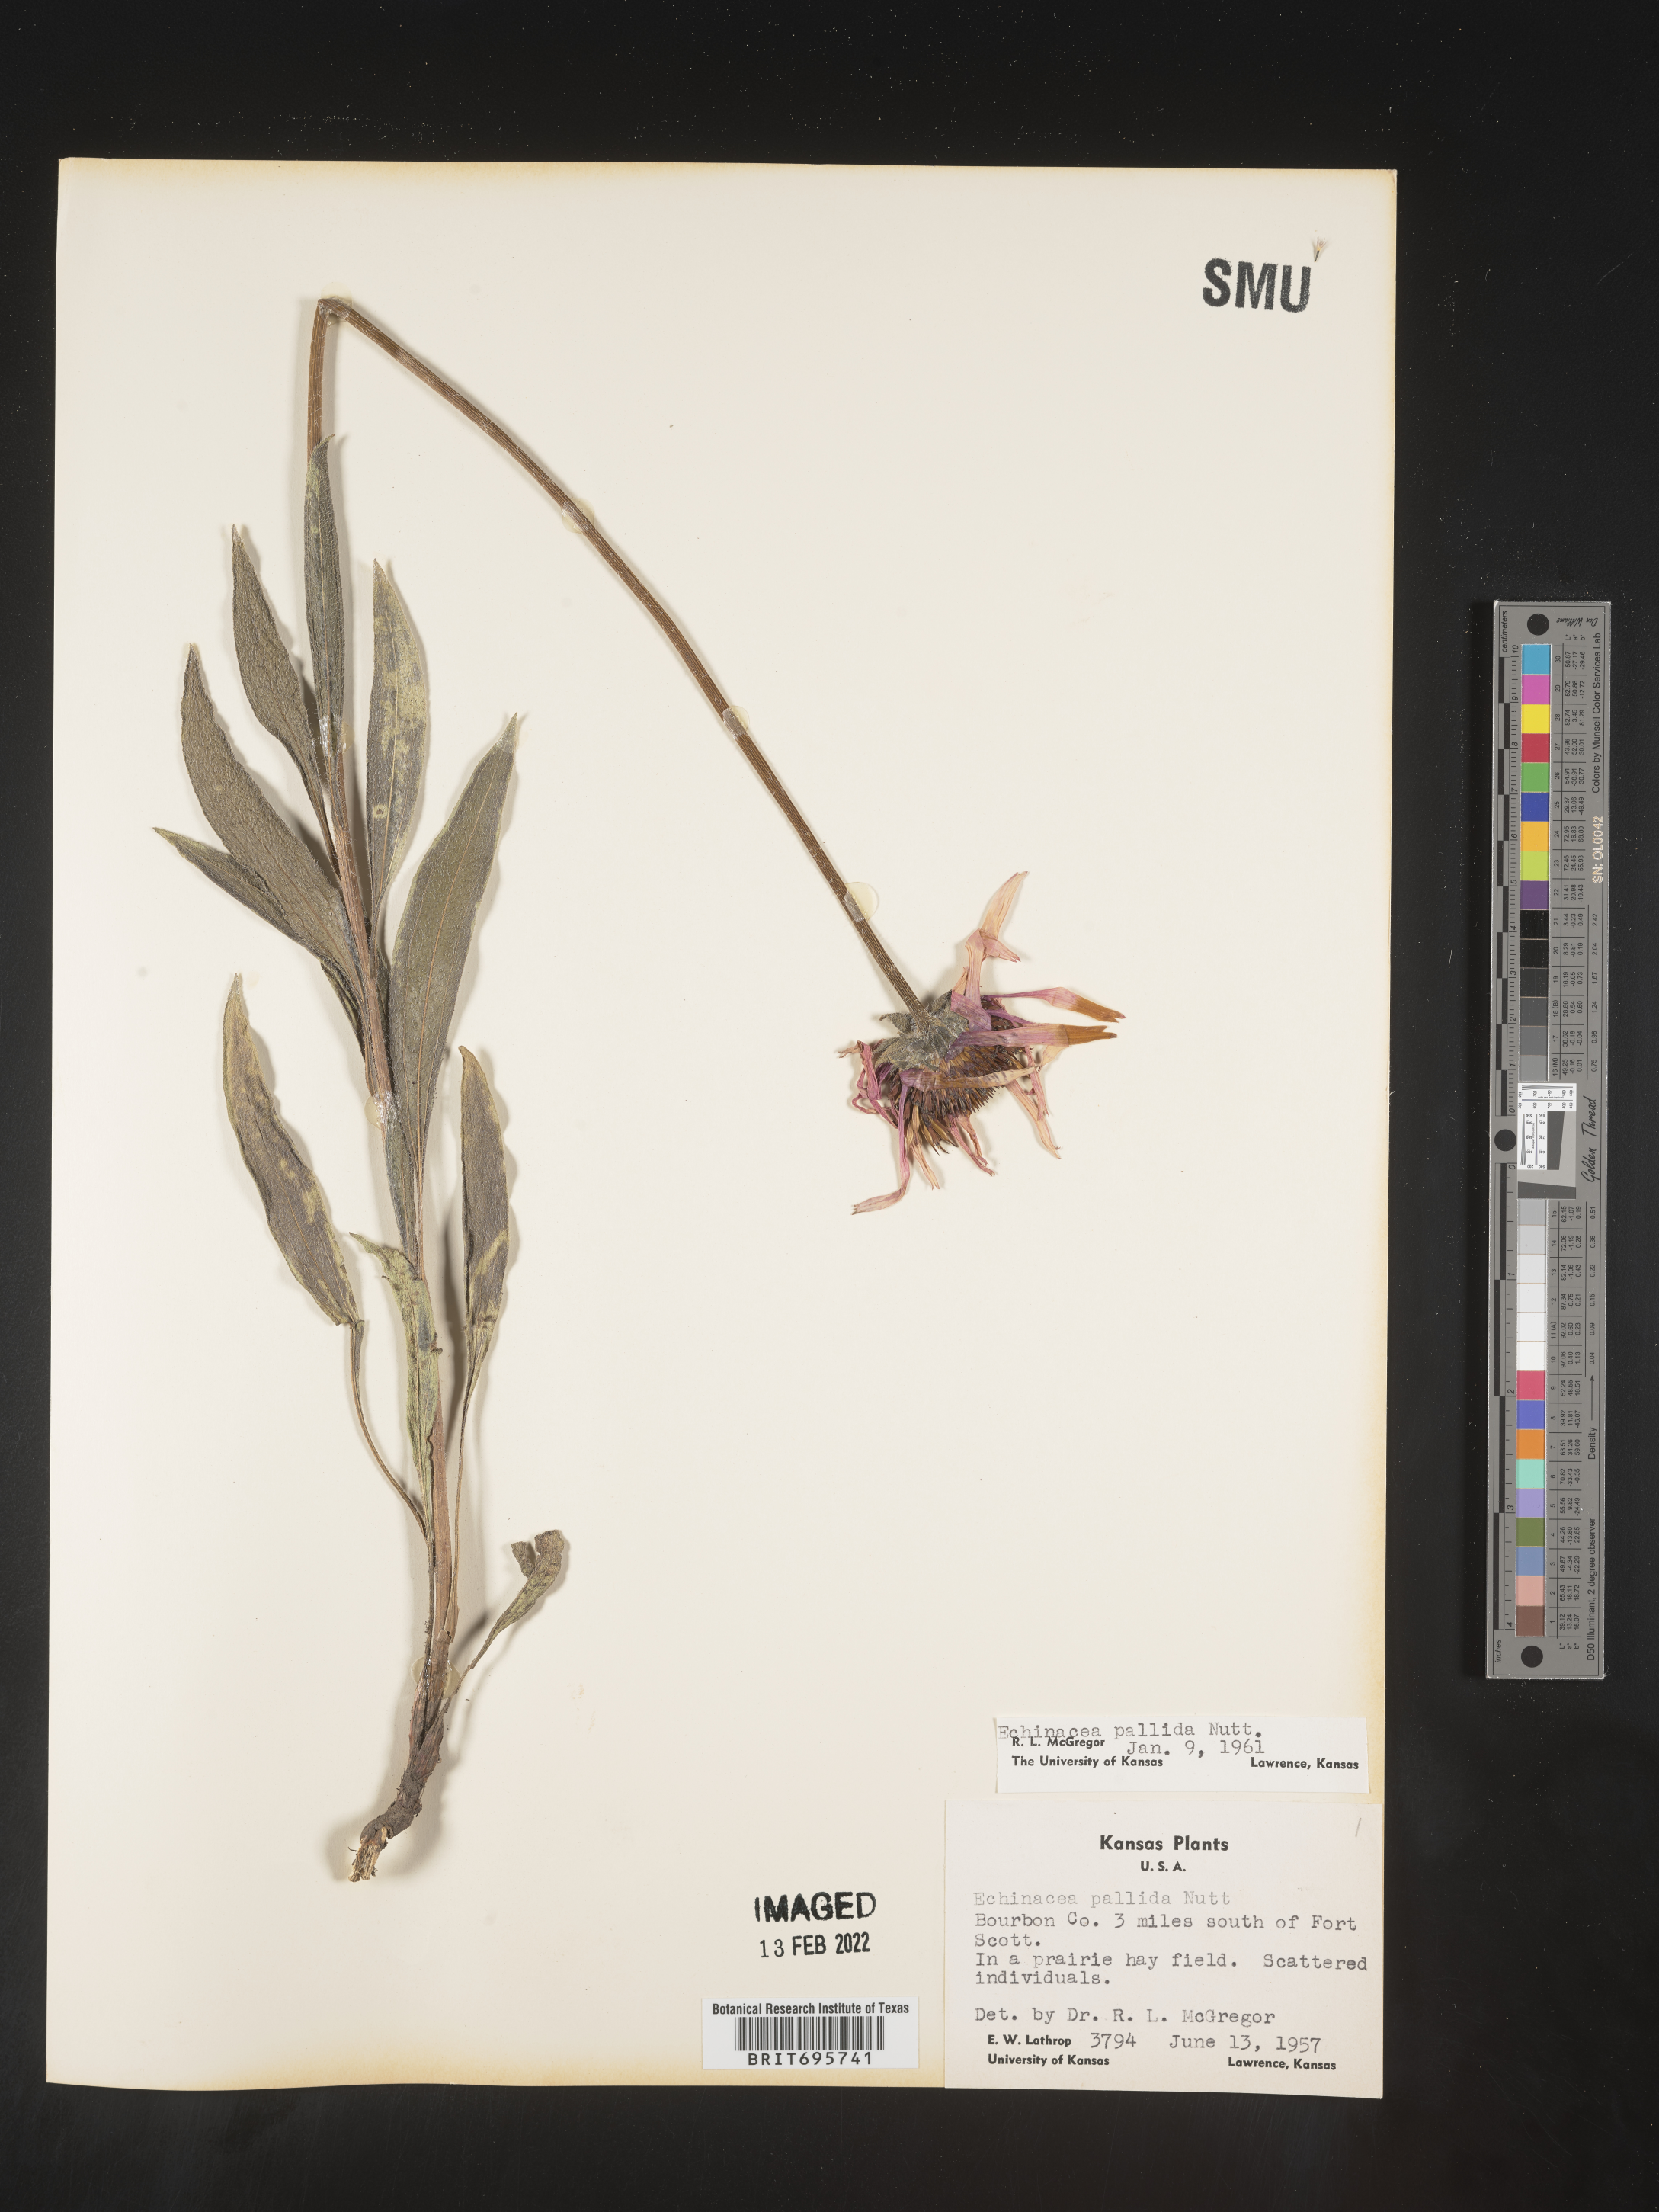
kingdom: Plantae
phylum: Tracheophyta
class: Magnoliopsida
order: Asterales
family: Asteraceae
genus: Echinacea
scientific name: Echinacea pallida
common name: Pale echinacea
